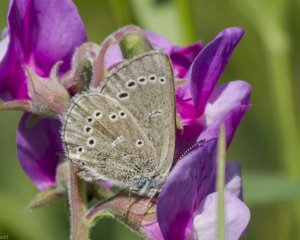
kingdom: Animalia
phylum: Arthropoda
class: Insecta
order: Lepidoptera
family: Lycaenidae
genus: Glaucopsyche
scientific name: Glaucopsyche lygdamus
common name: Silvery Blue
